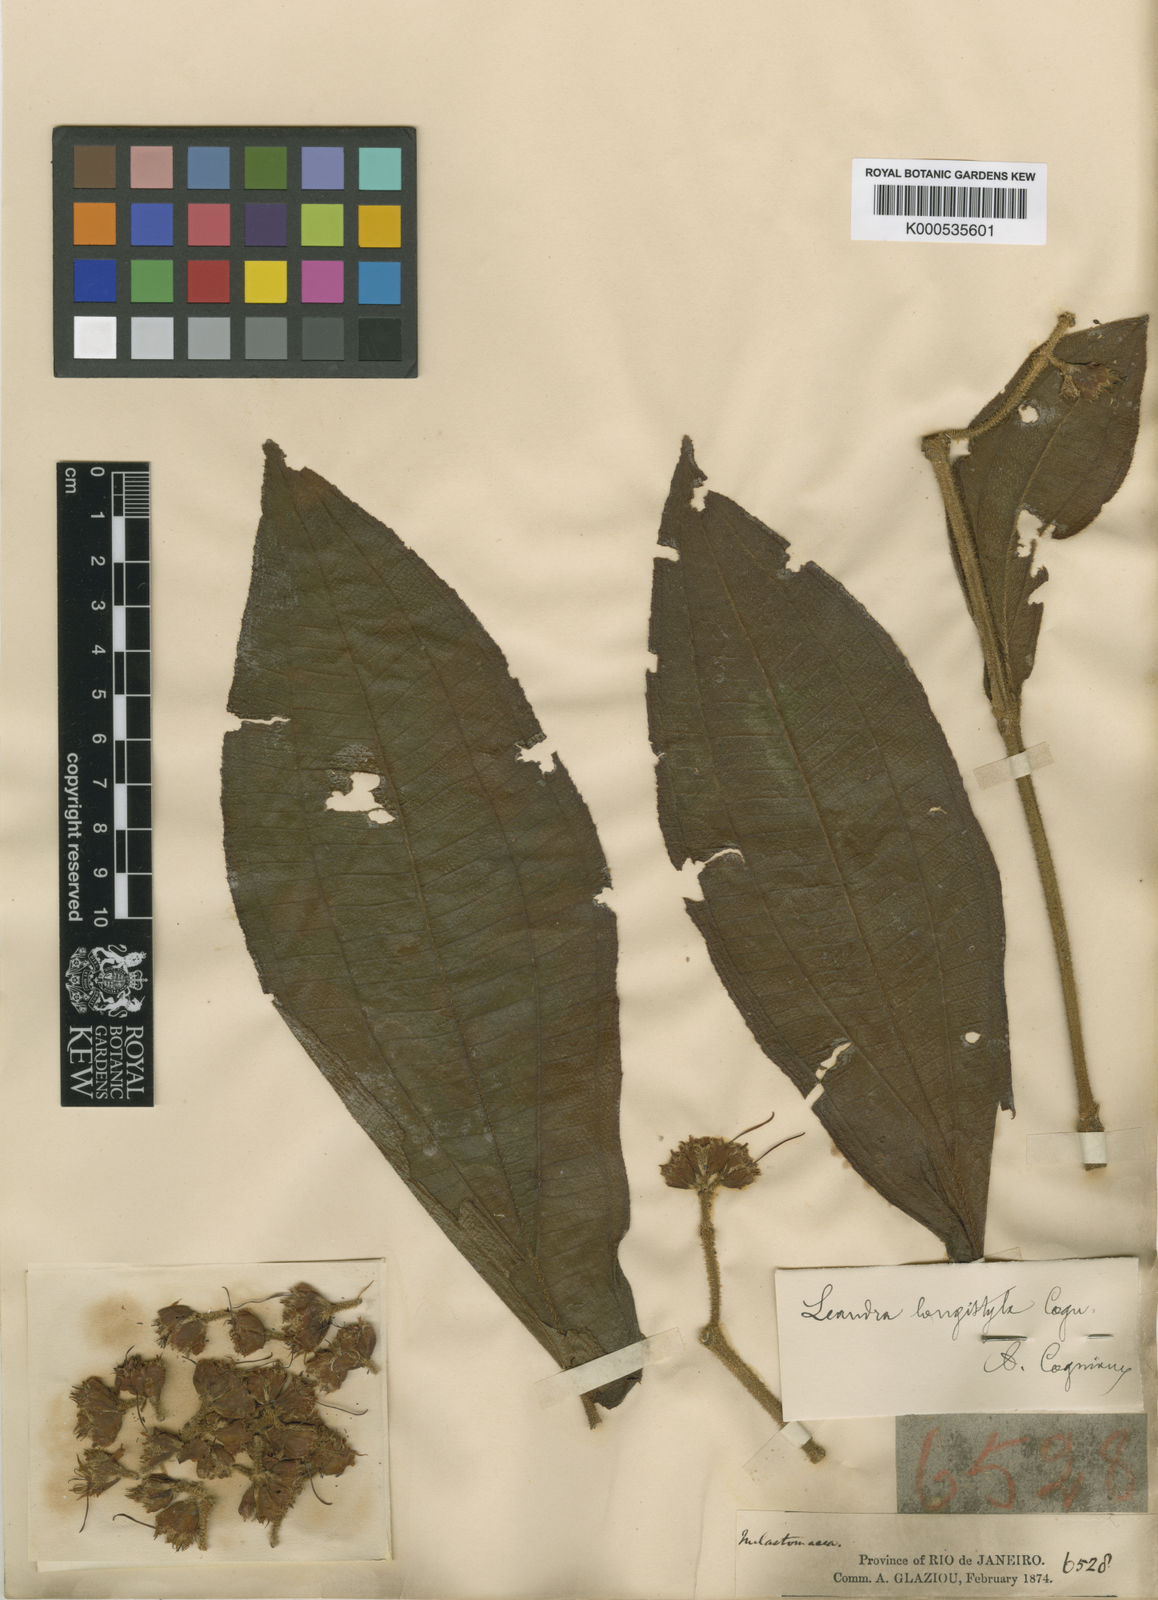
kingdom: Plantae
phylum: Tracheophyta
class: Magnoliopsida
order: Myrtales
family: Melastomataceae
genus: Miconia
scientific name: Miconia pectinata
